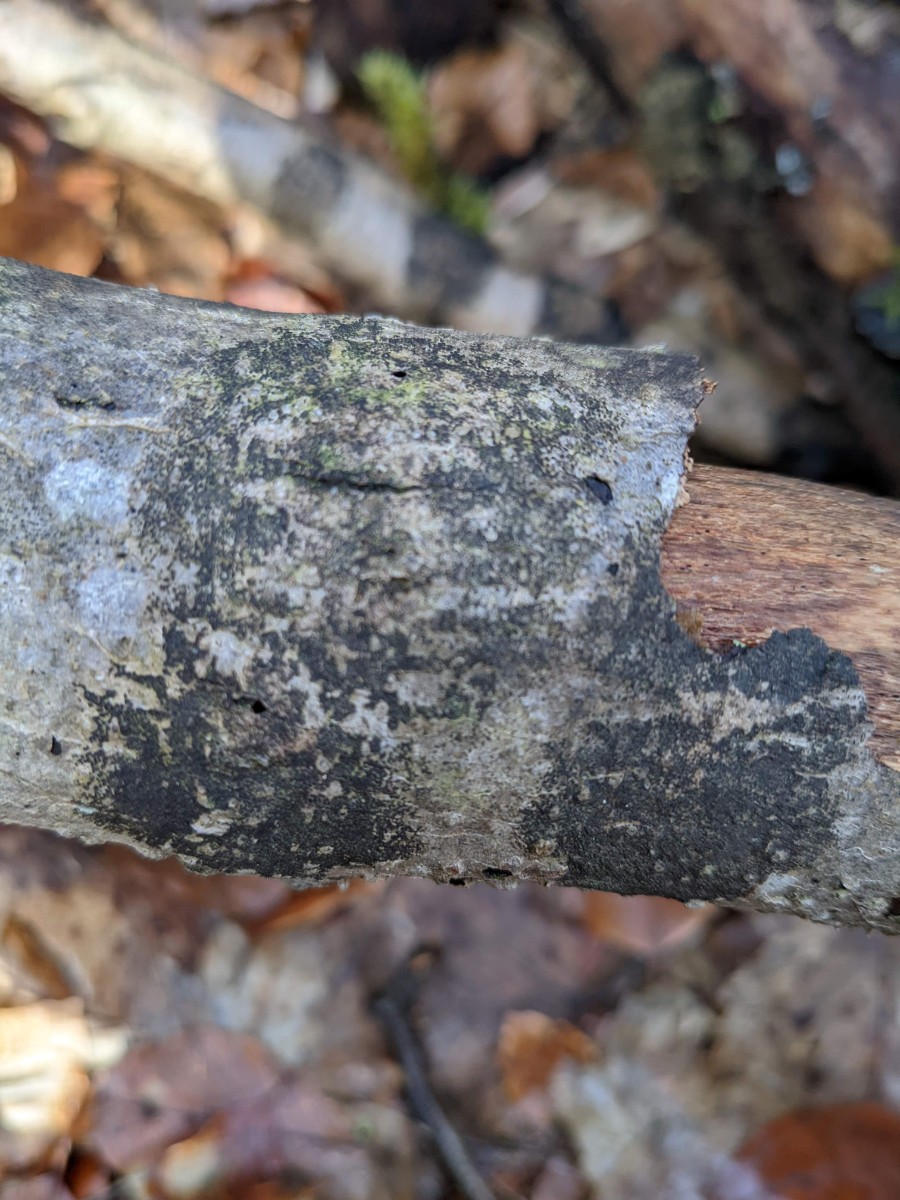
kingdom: Fungi
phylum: Ascomycota
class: Leotiomycetes
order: Rhytismatales
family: Ascodichaenaceae
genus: Ascodichaena
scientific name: Ascodichaena rugosa
